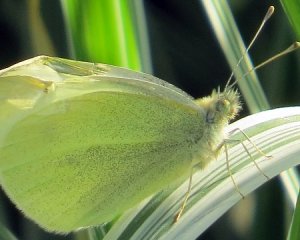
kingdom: Animalia
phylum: Arthropoda
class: Insecta
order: Lepidoptera
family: Pieridae
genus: Pieris
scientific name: Pieris rapae
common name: Cabbage White
